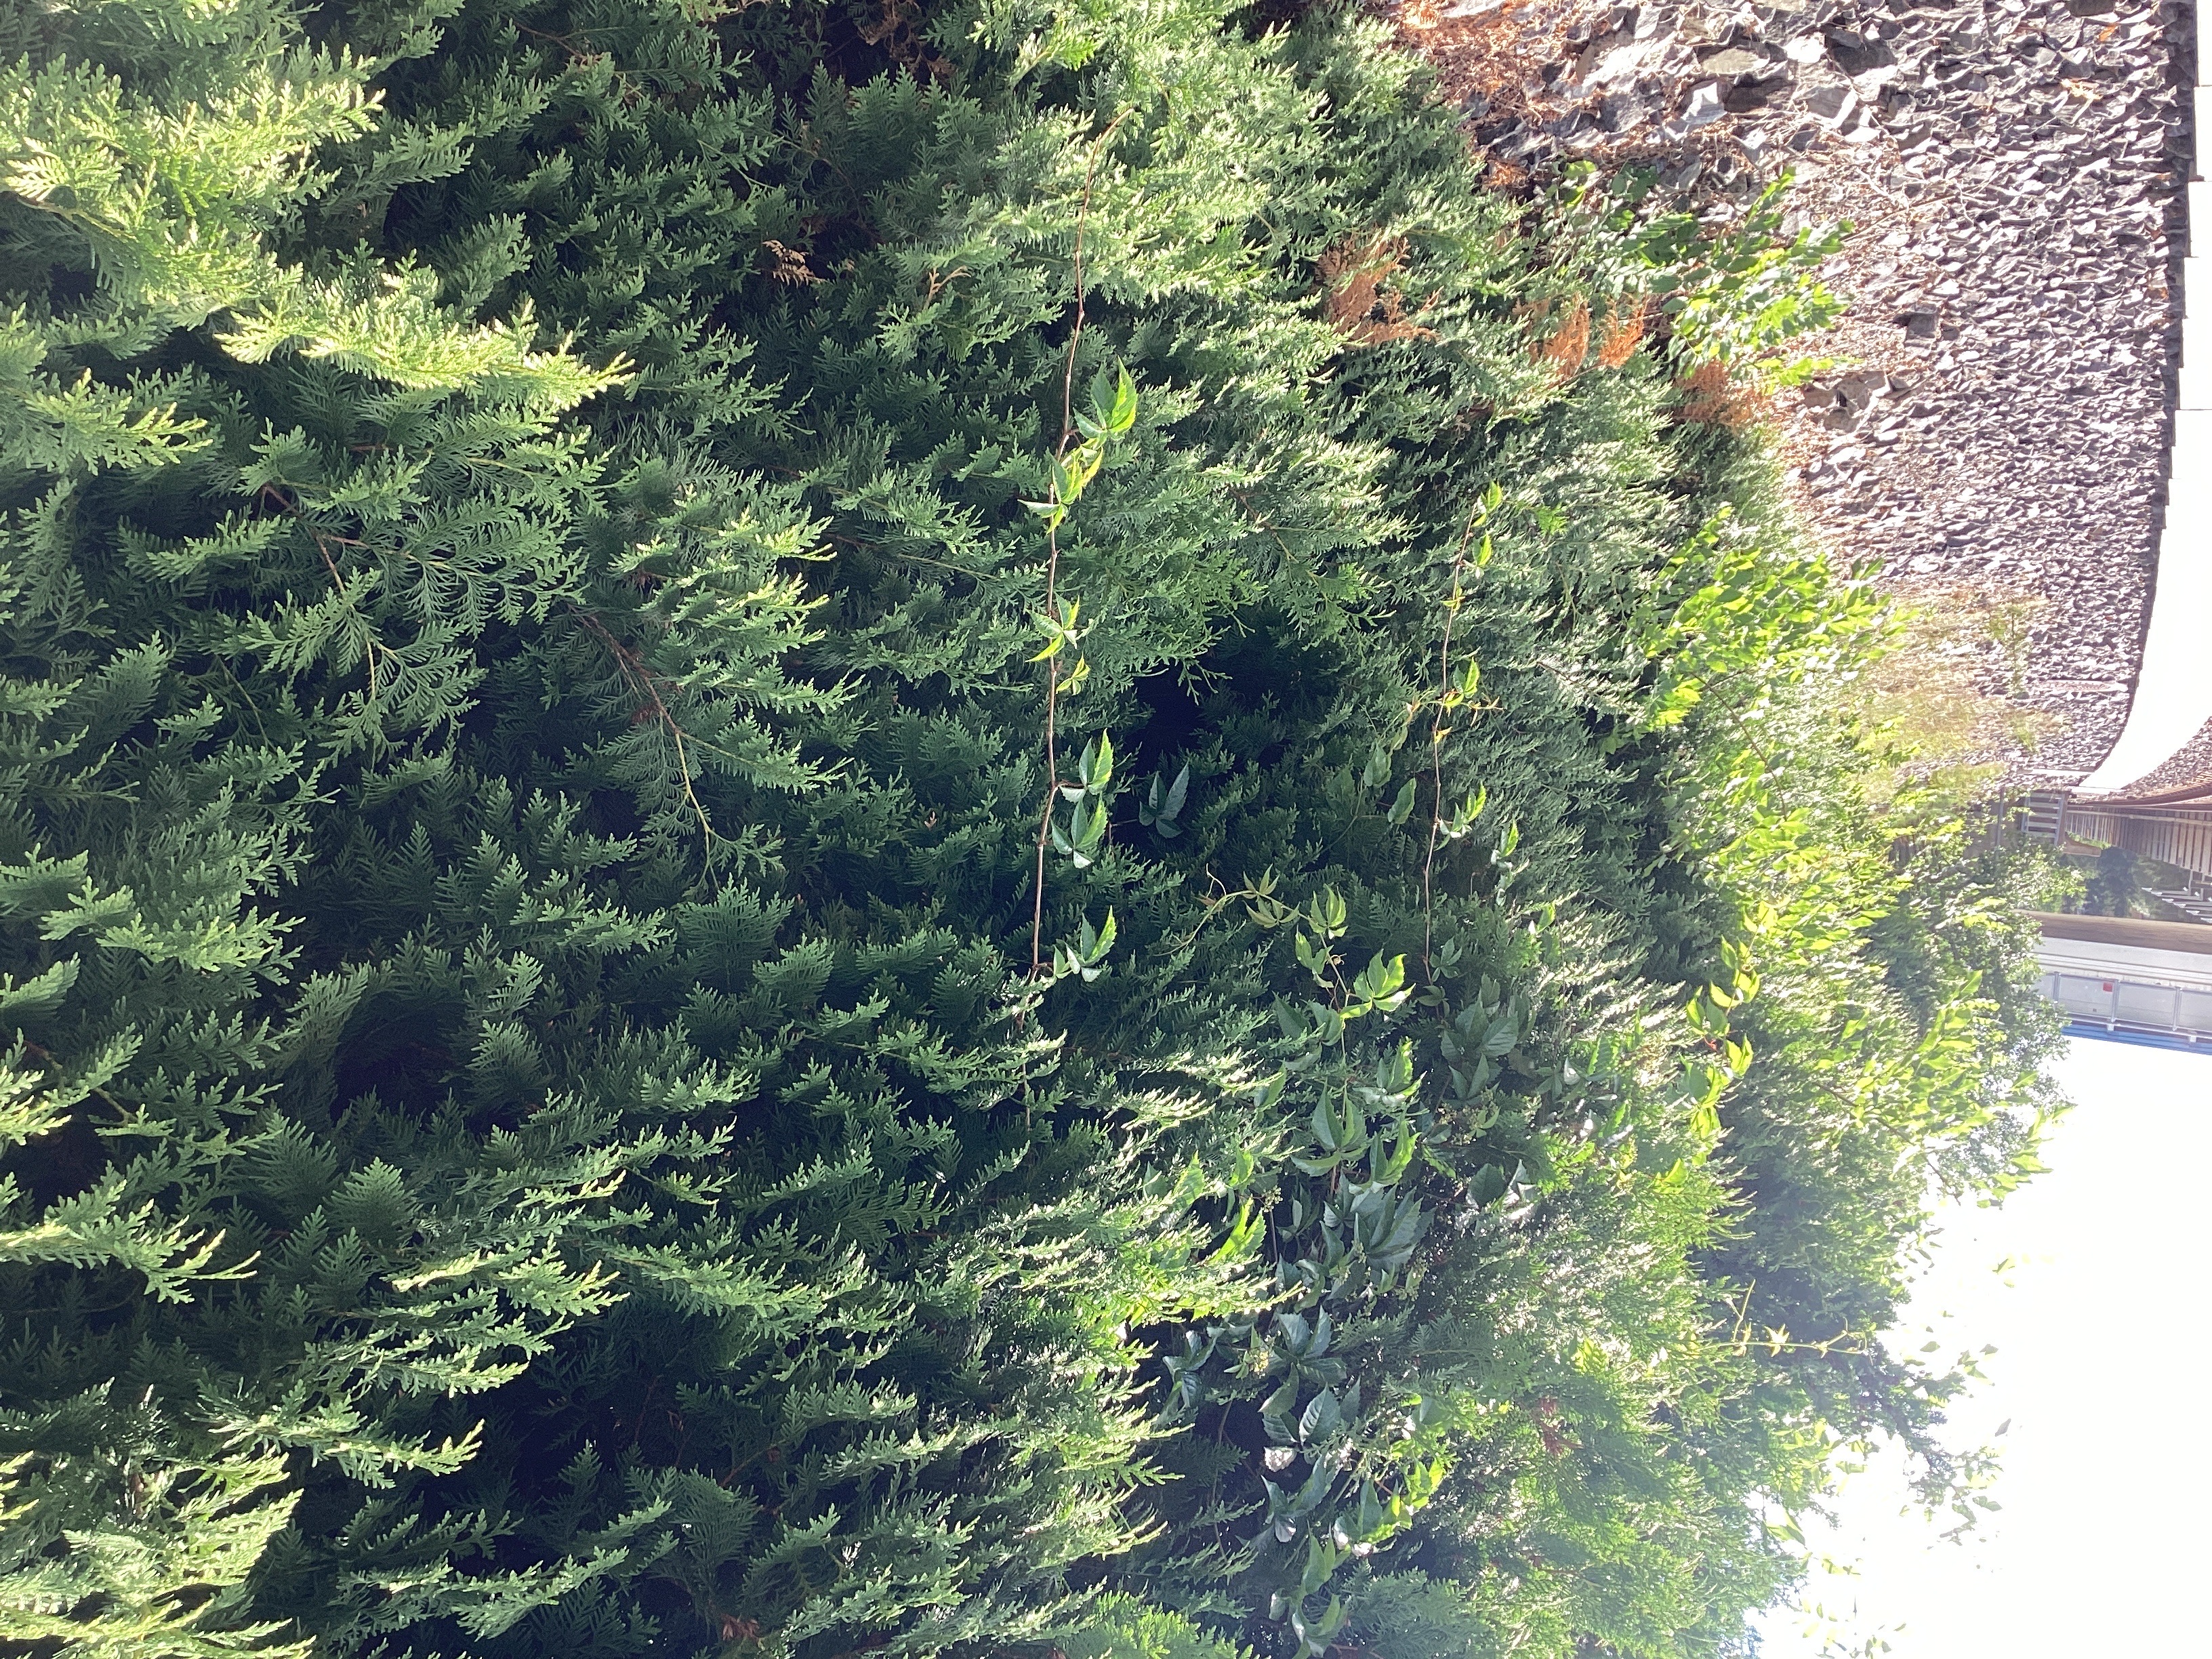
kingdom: Plantae
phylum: Tracheophyta
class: Magnoliopsida
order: Vitales
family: Vitaceae
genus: Parthenocissus
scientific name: Parthenocissus quinquefolia
